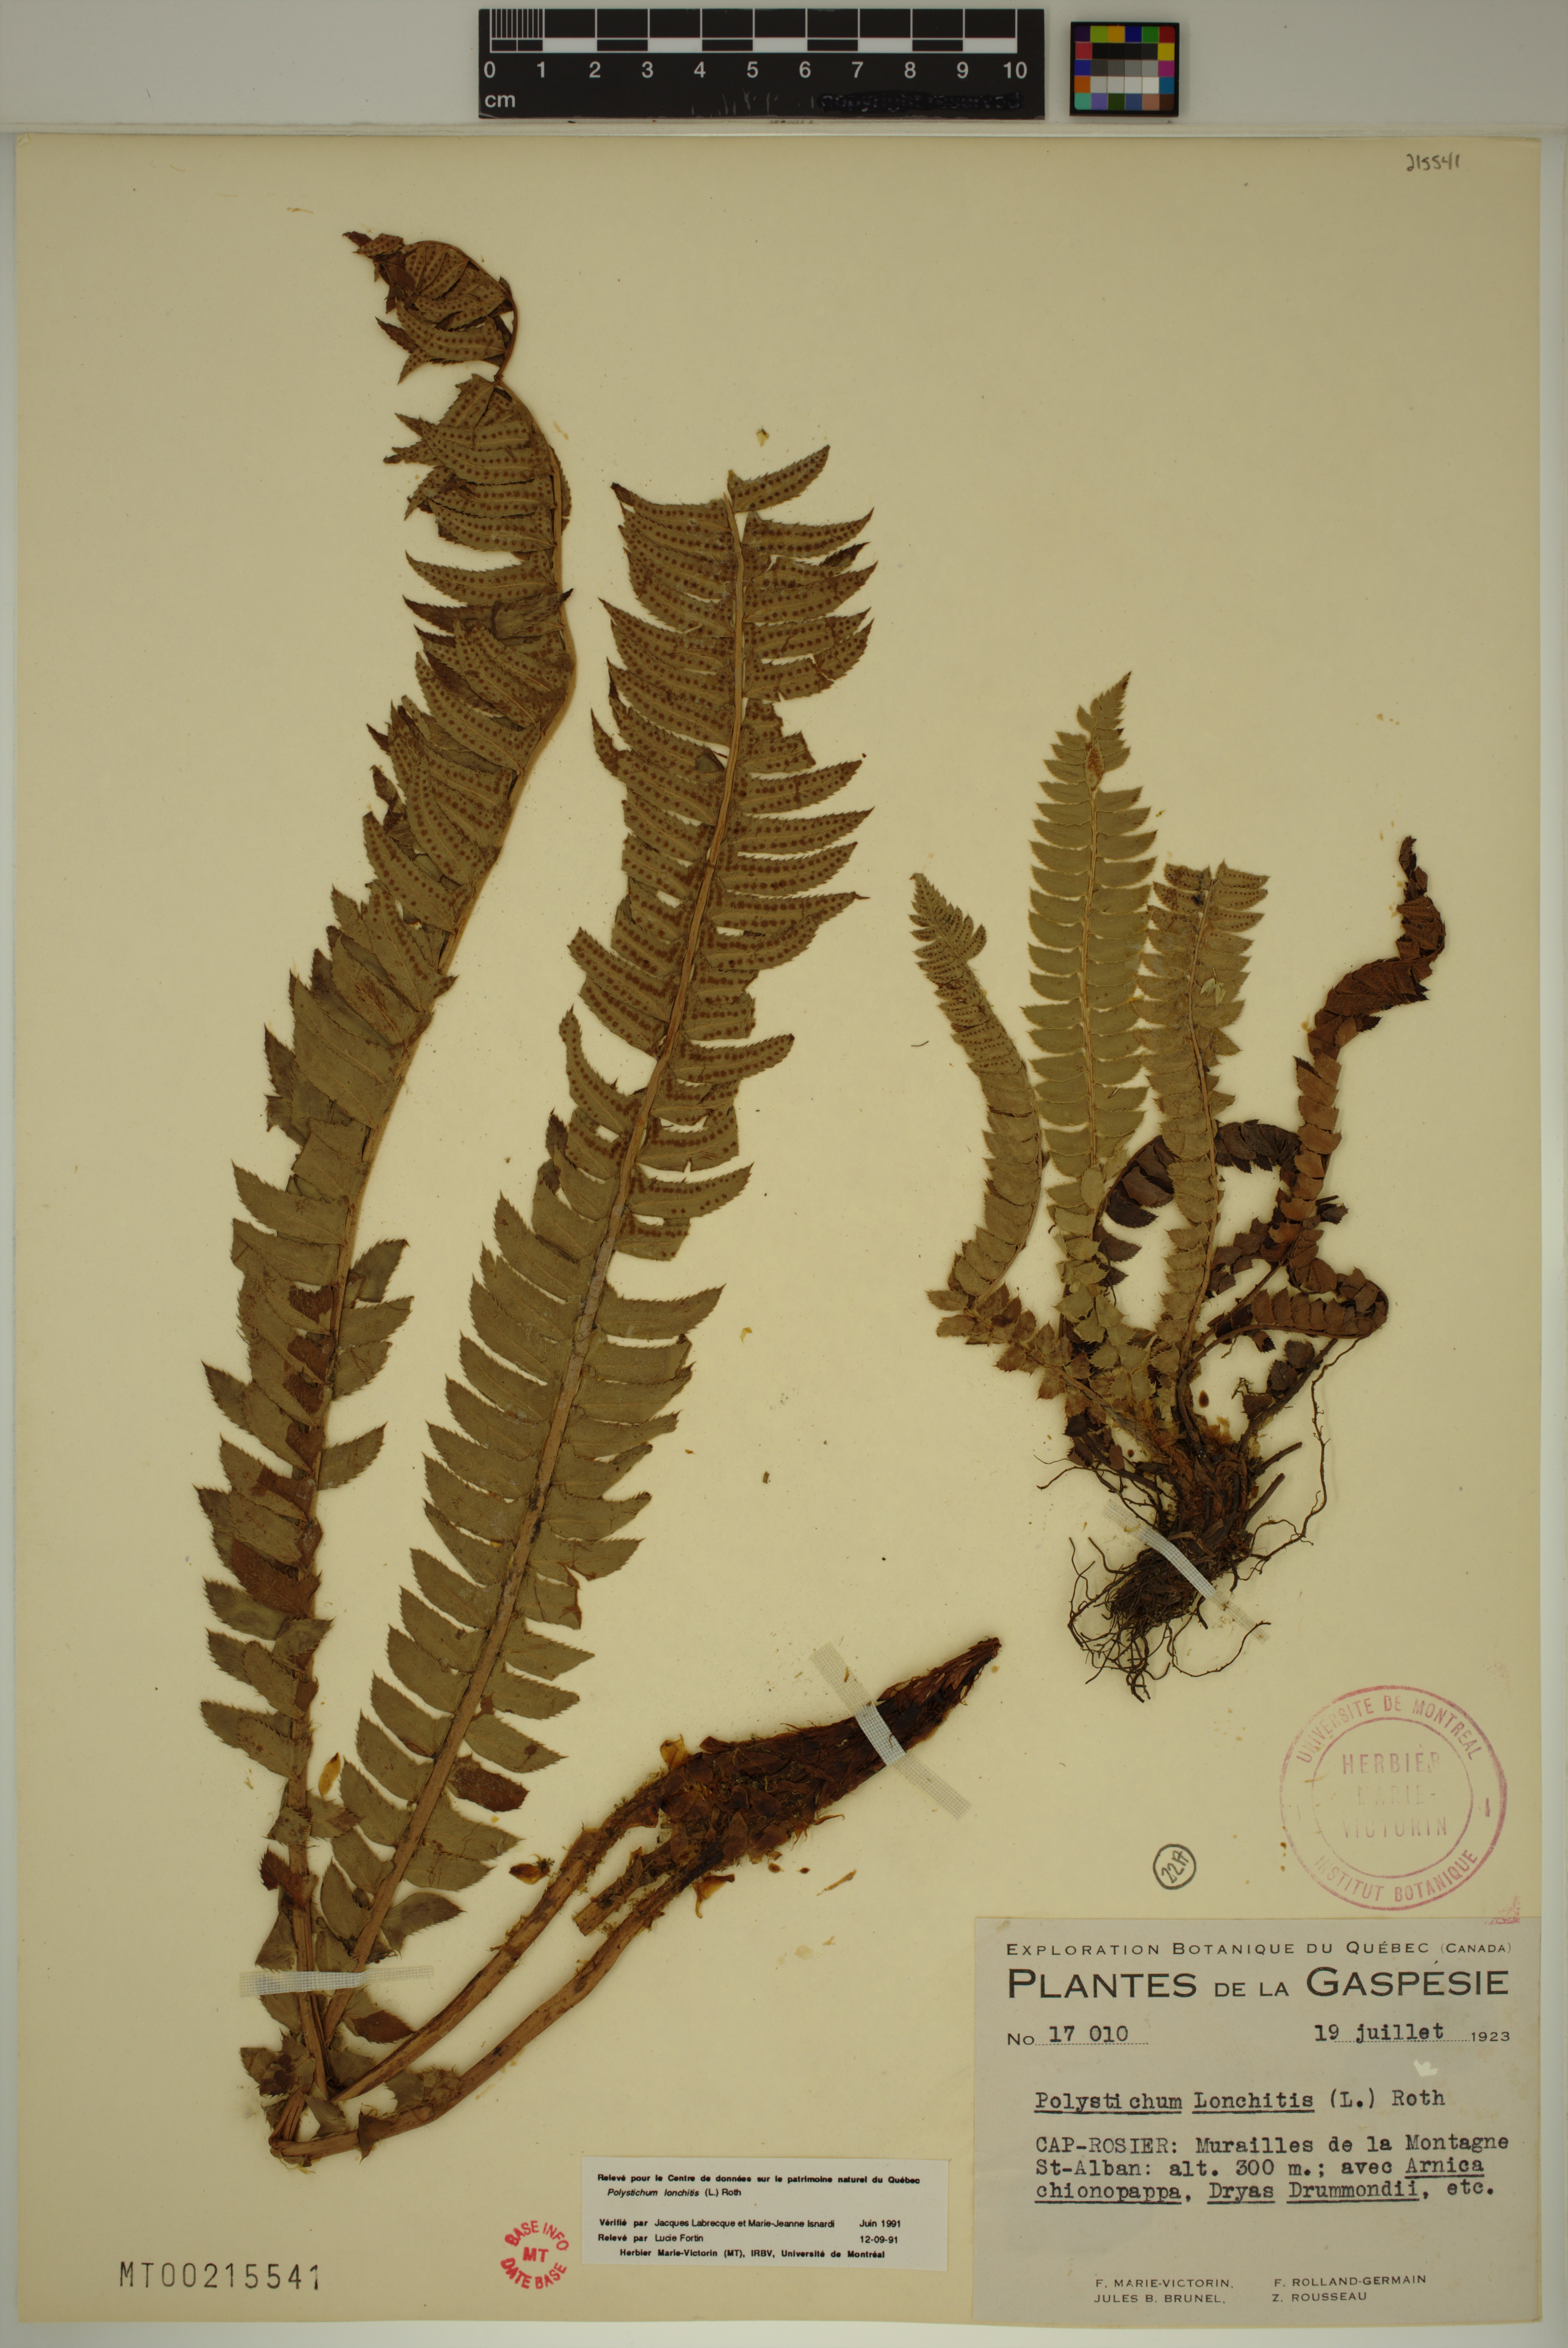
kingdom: Plantae
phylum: Tracheophyta
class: Polypodiopsida
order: Polypodiales
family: Dryopteridaceae
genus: Polystichum
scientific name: Polystichum lonchitis
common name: Holly fern
